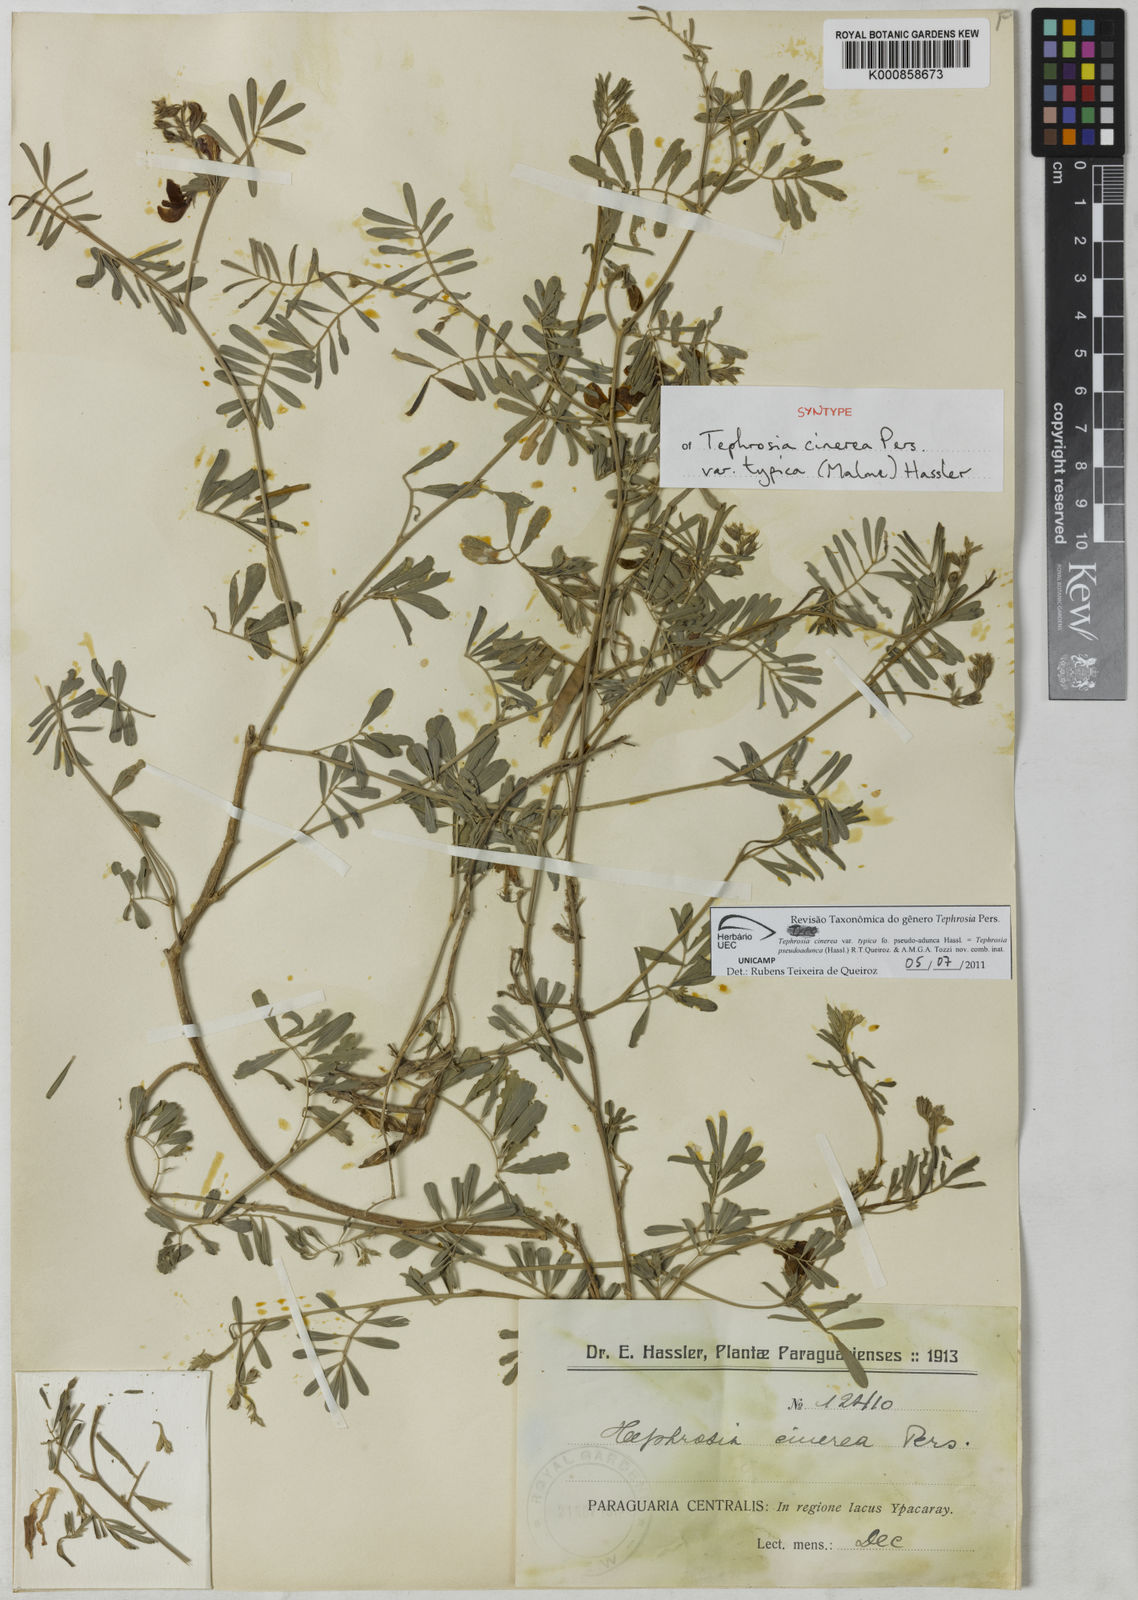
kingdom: Plantae
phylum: Tracheophyta
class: Magnoliopsida
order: Fabales
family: Fabaceae
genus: Tephrosia
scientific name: Tephrosia
